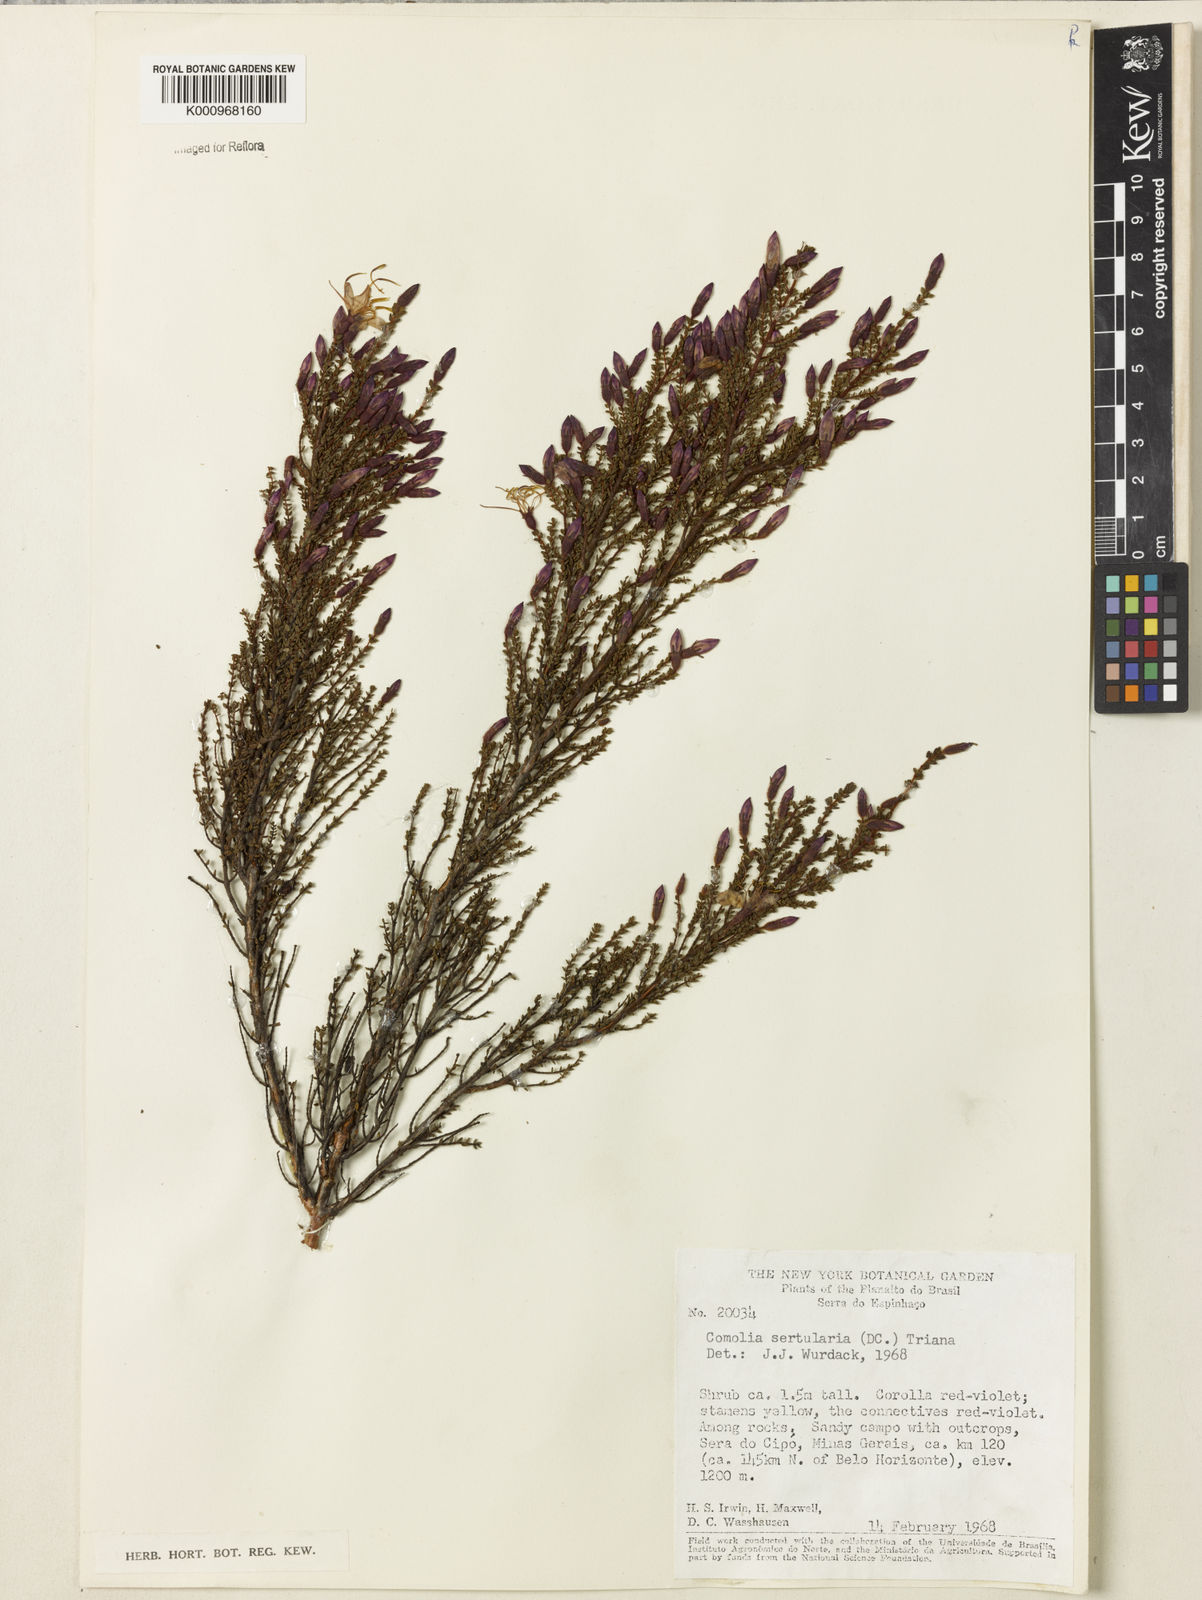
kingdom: Plantae
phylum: Tracheophyta
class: Magnoliopsida
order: Myrtales
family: Melastomataceae
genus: Fritzschia
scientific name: Fritzschia sertularia
